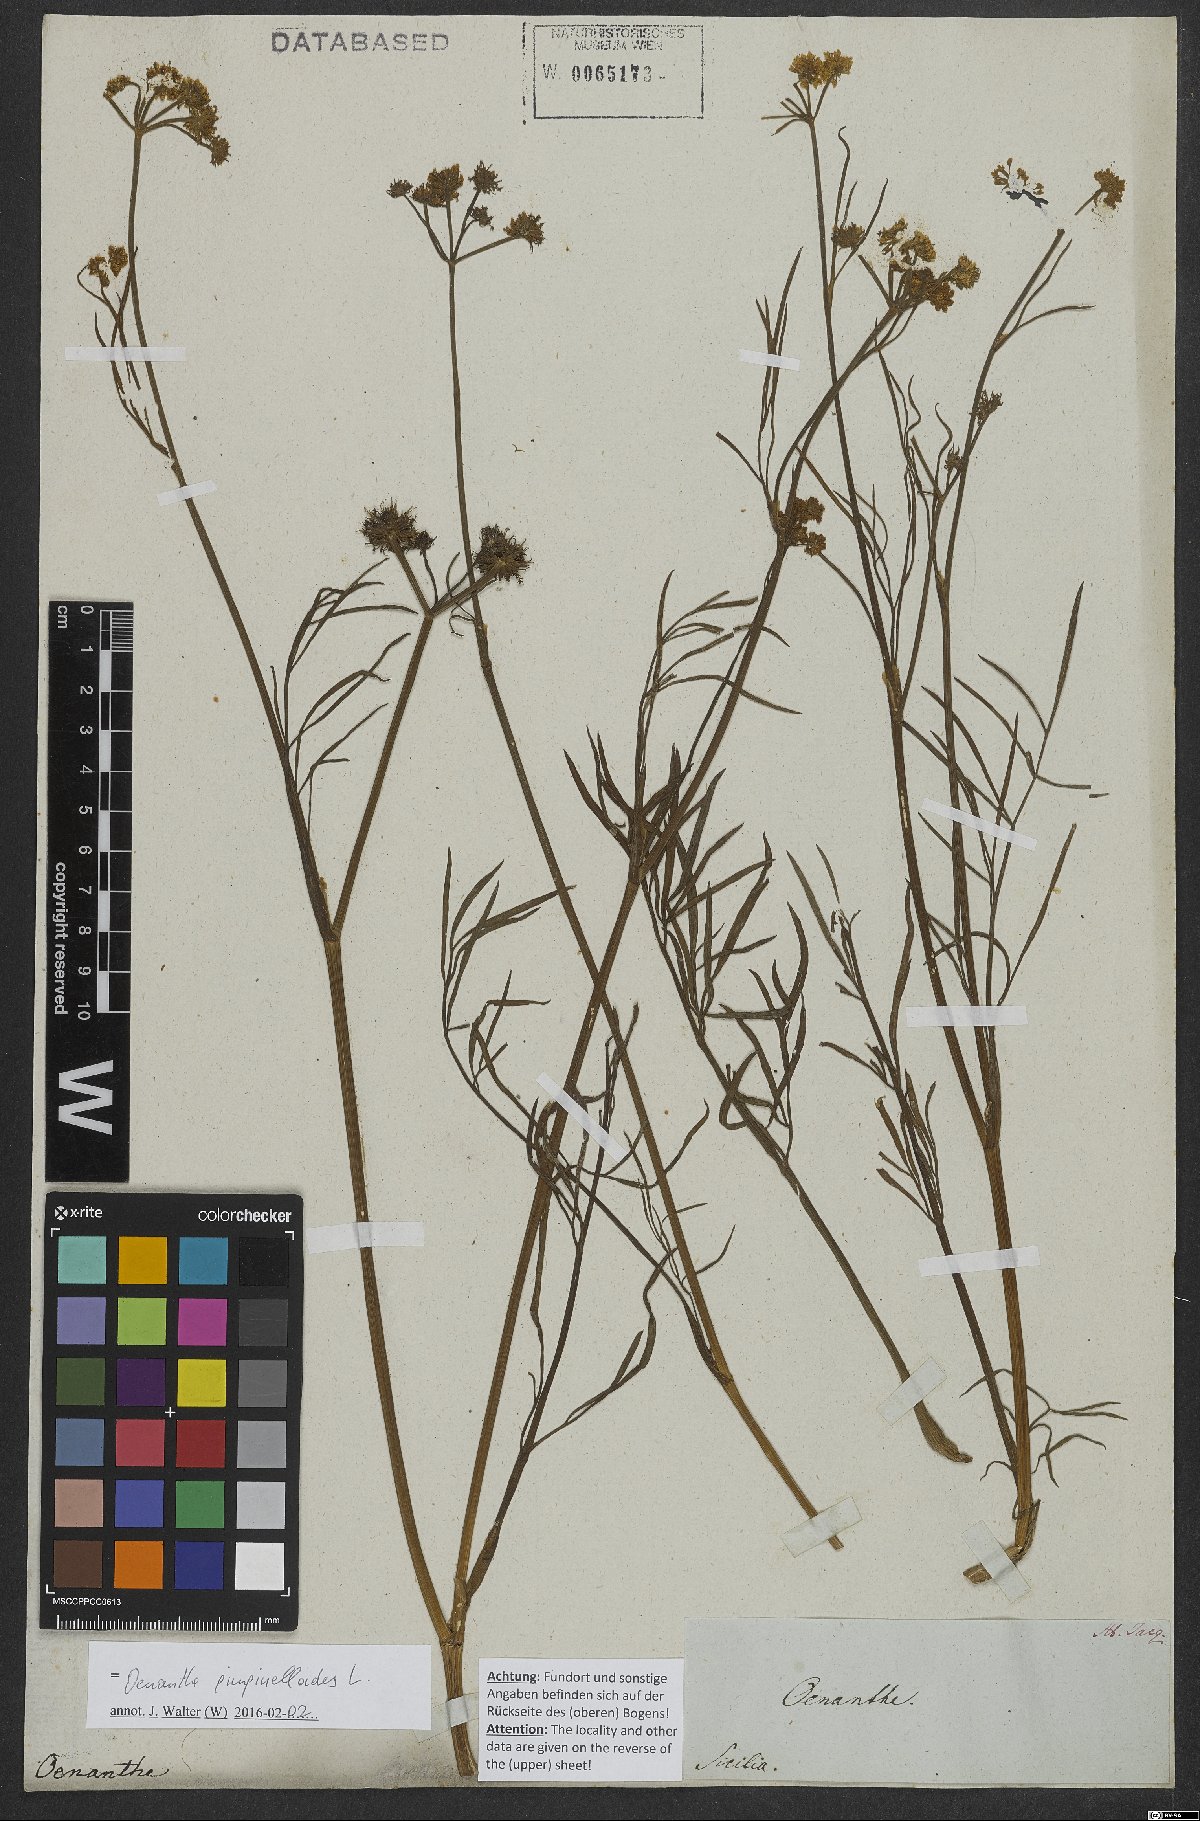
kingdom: Plantae
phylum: Tracheophyta
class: Magnoliopsida
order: Apiales
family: Apiaceae
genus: Oenanthe
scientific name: Oenanthe pimpinelloides
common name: Corky-fruited water-dropwort
